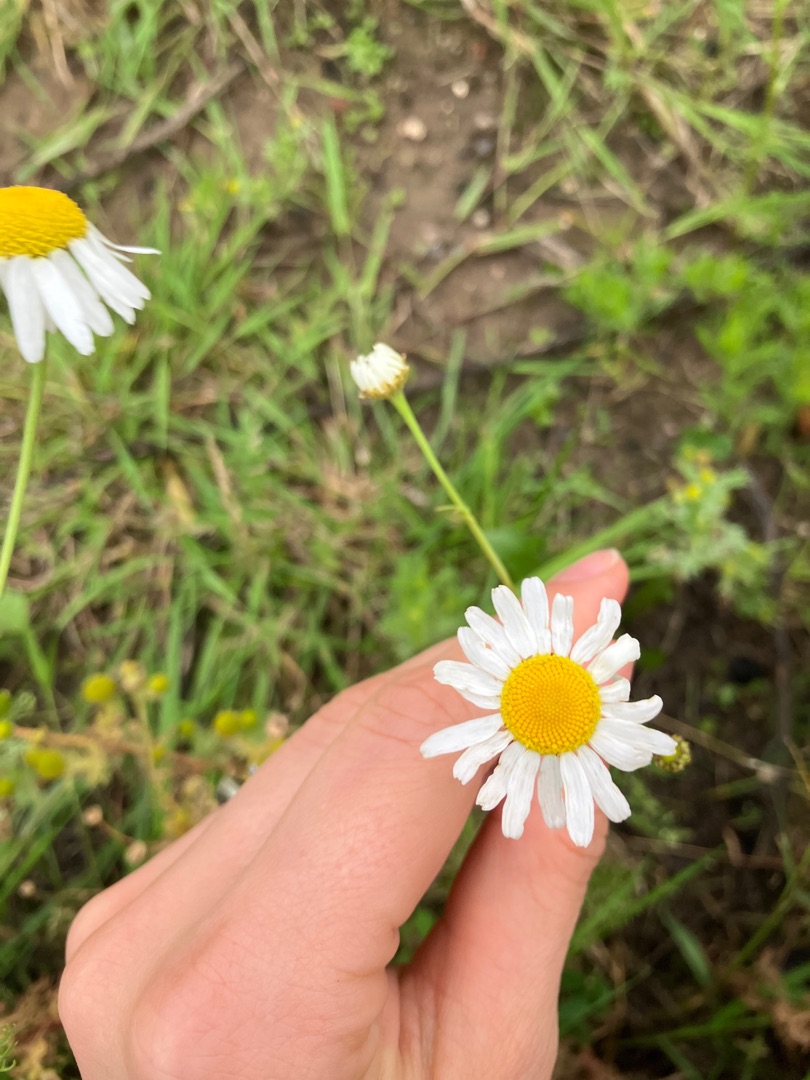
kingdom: Plantae
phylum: Tracheophyta
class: Magnoliopsida
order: Asterales
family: Asteraceae
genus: Leucanthemum
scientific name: Leucanthemum vulgare
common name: Hvid okseøje
